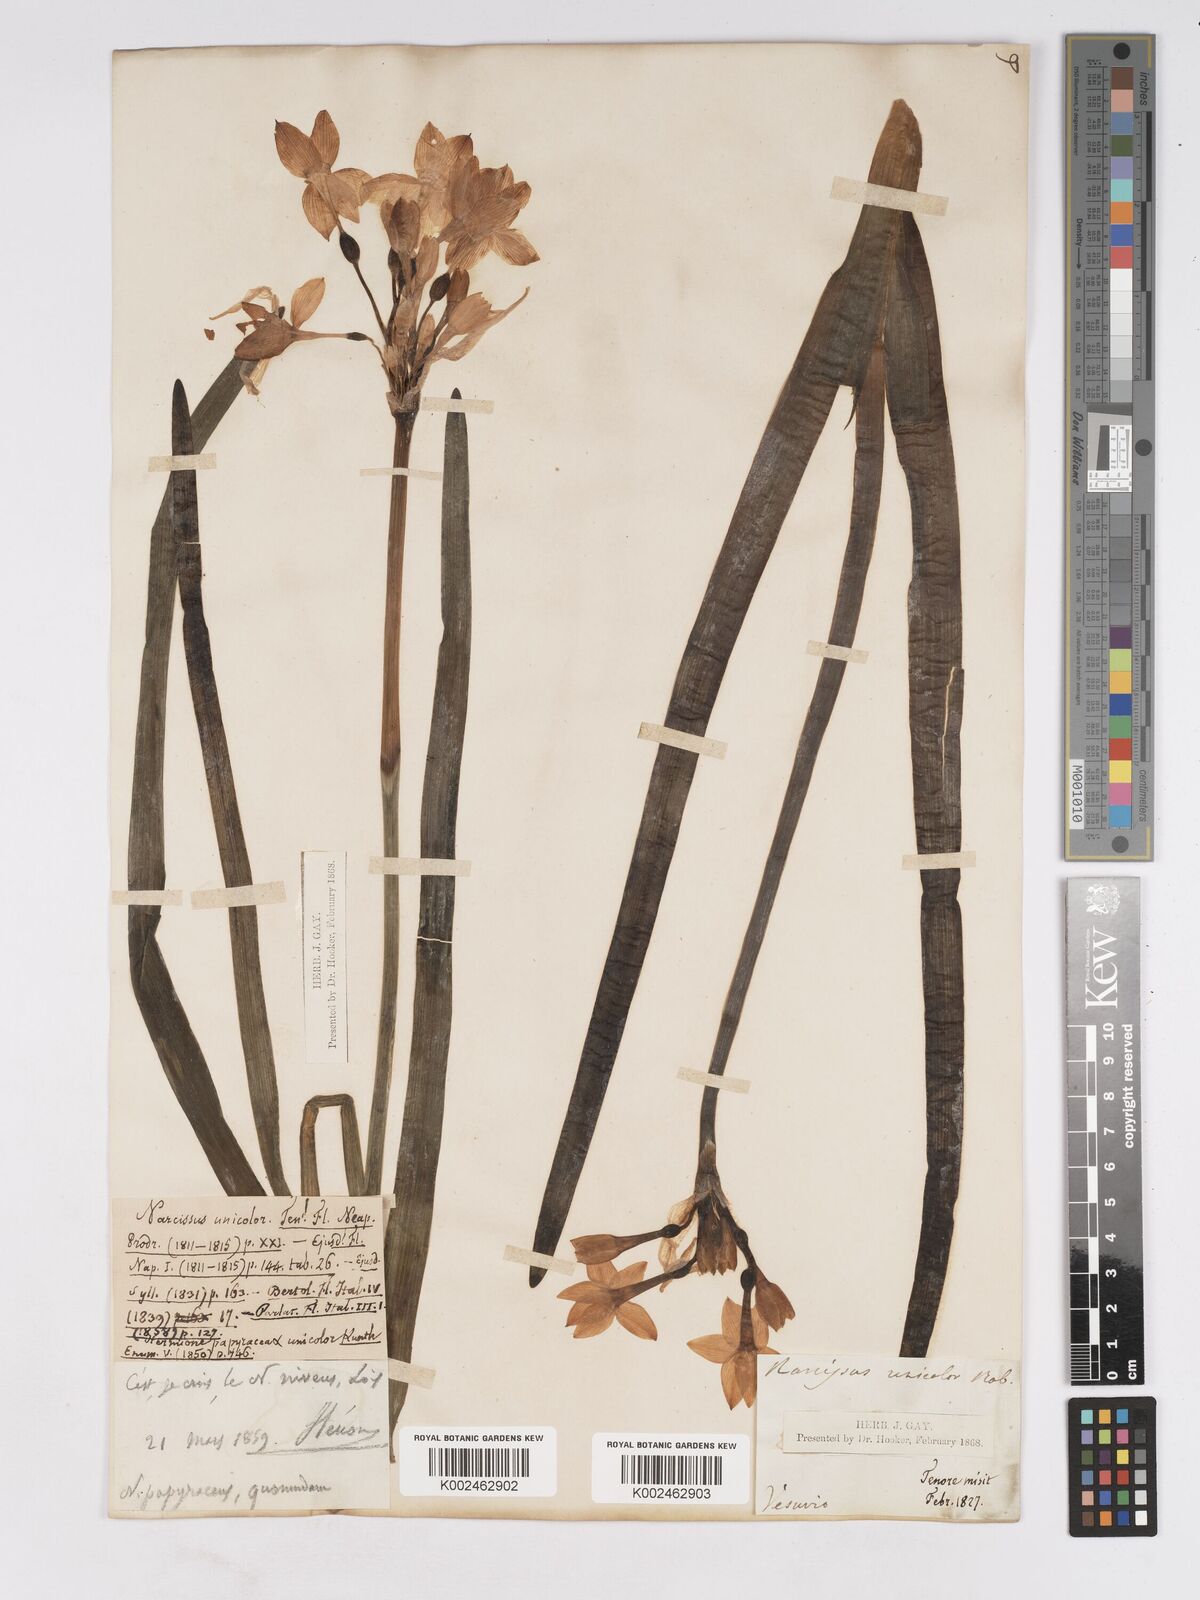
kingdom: Plantae
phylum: Tracheophyta
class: Liliopsida
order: Asparagales
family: Amaryllidaceae
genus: Narcissus
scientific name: Narcissus papyraceus
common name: Paper-white daffodil
